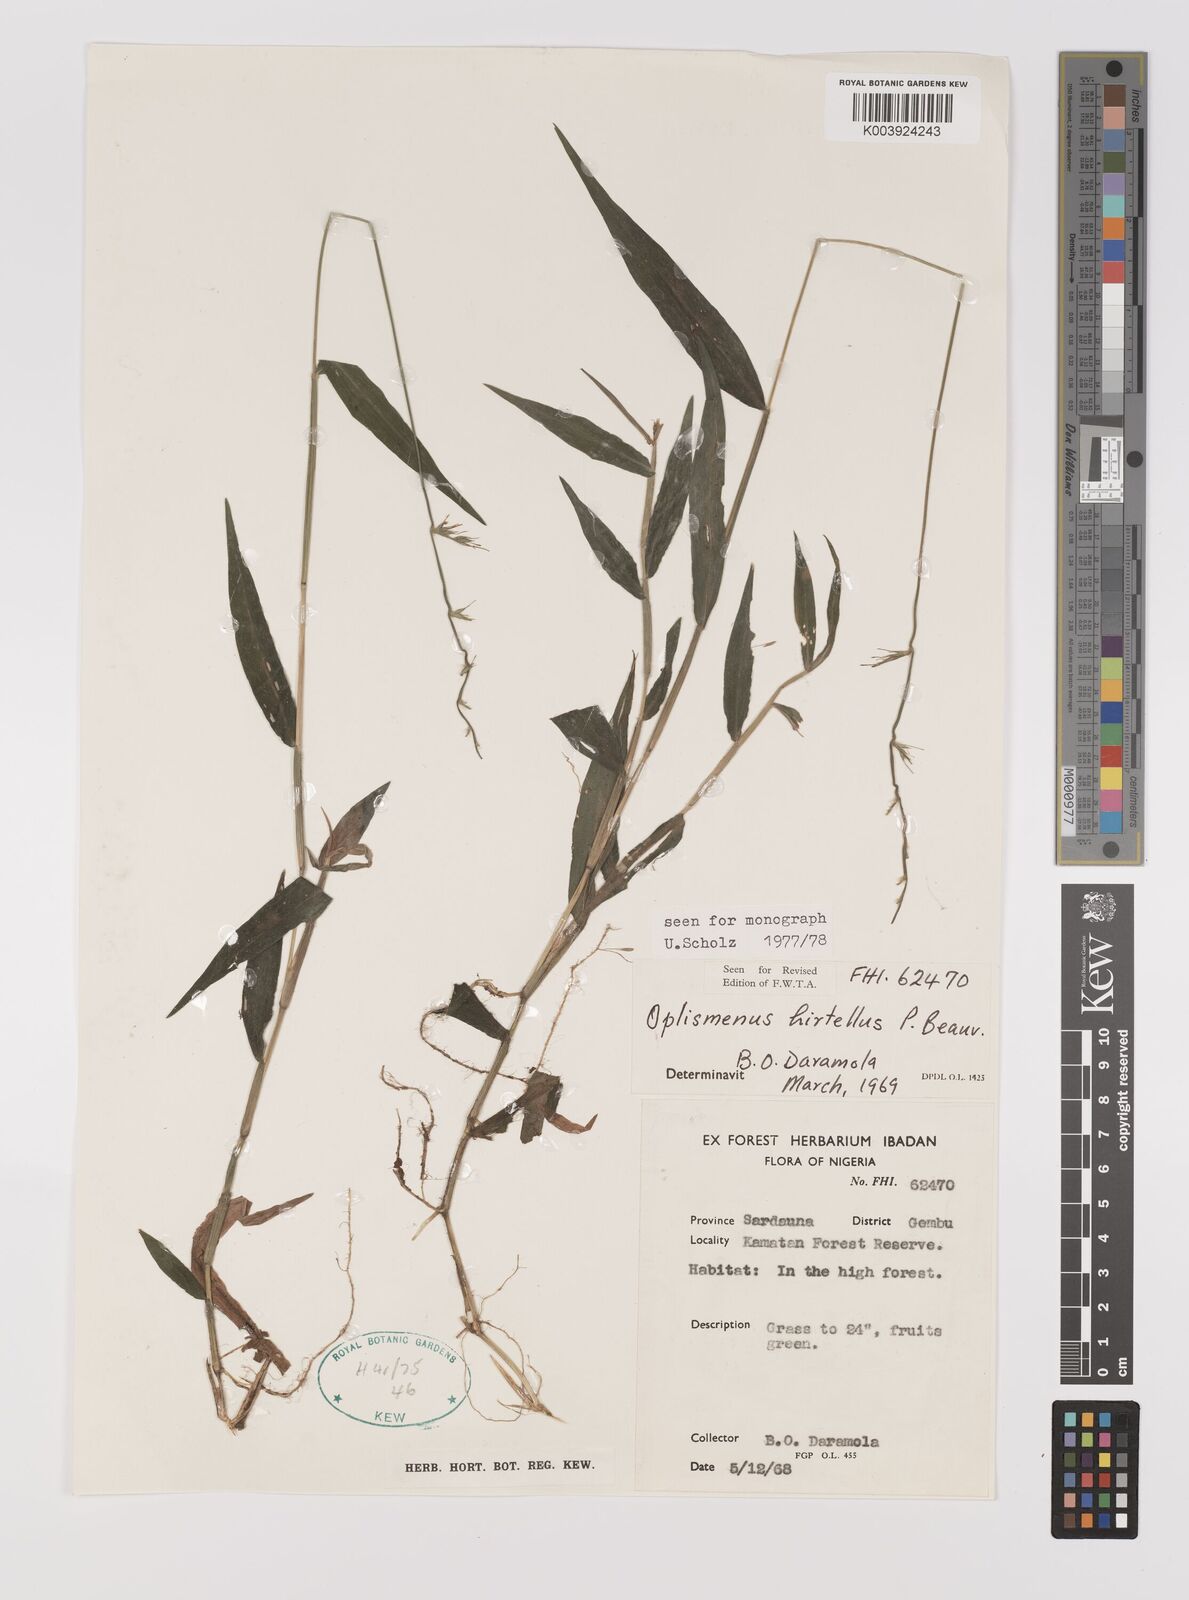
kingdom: Plantae
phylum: Tracheophyta
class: Liliopsida
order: Poales
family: Poaceae
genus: Oplismenus
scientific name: Oplismenus hirtellus
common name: Basketgrass
